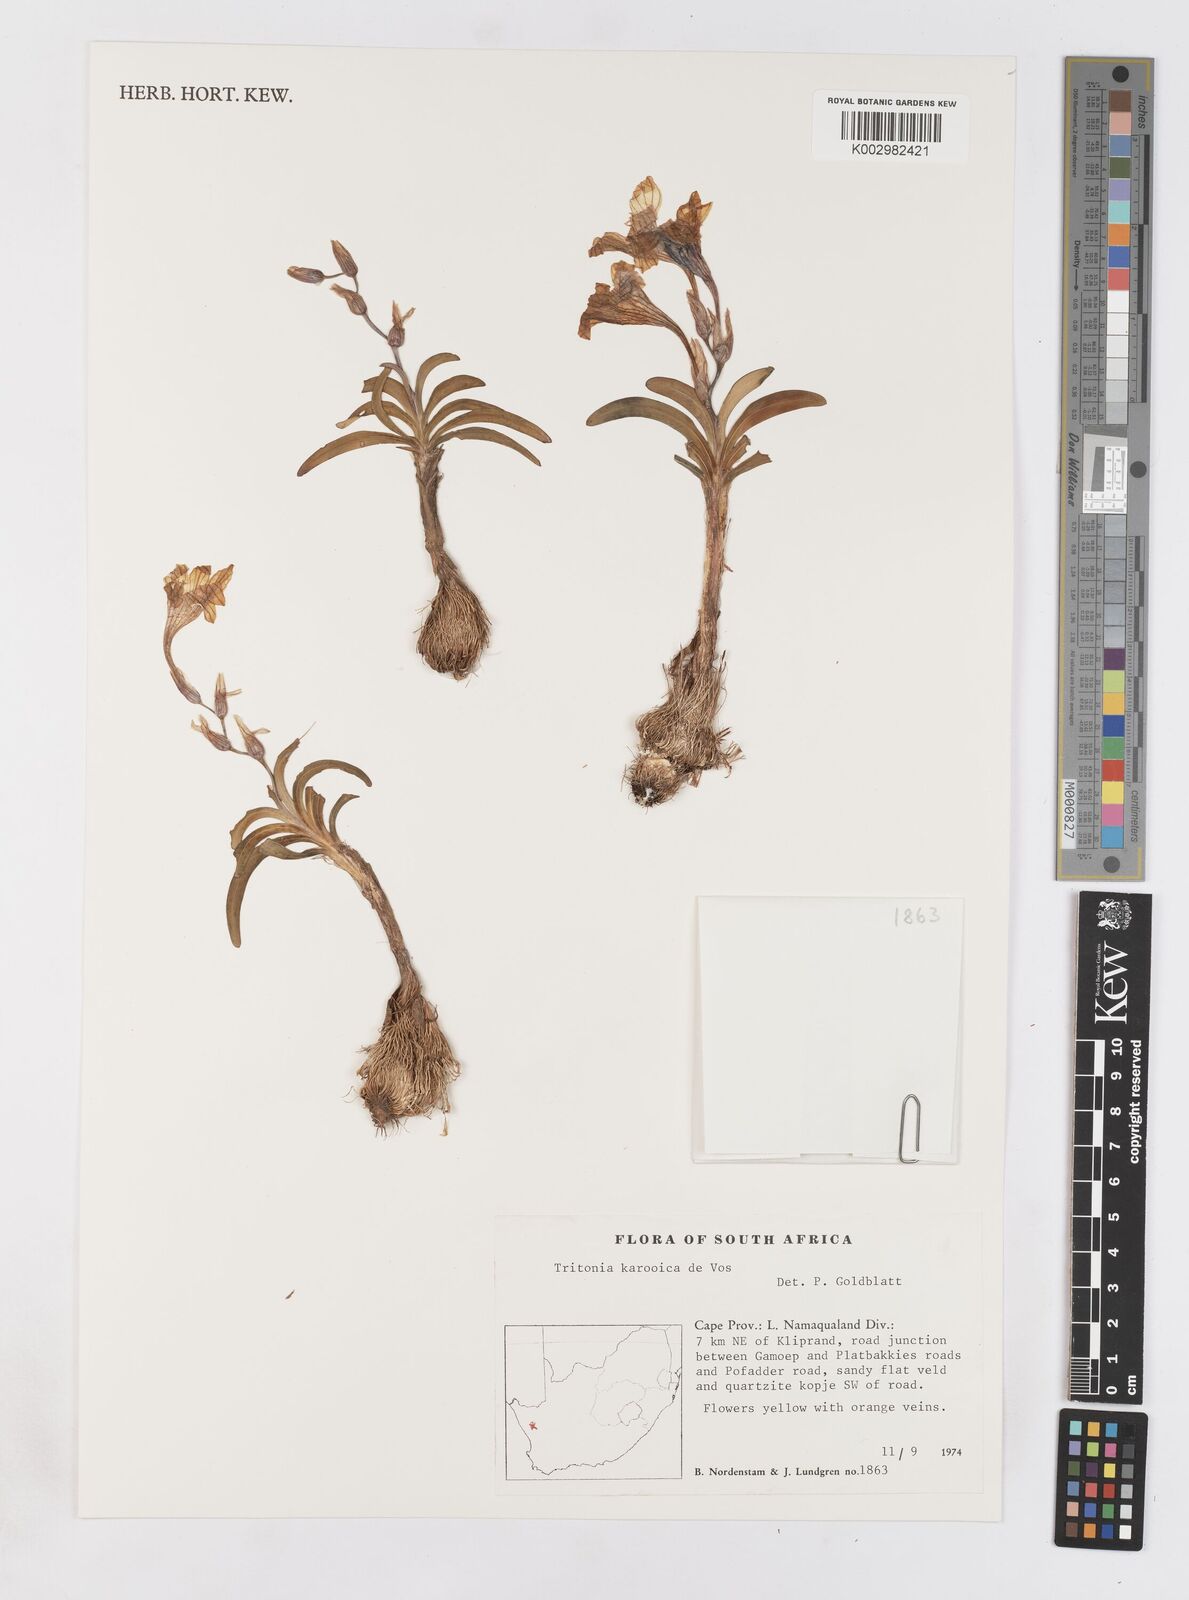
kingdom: Plantae
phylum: Tracheophyta
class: Liliopsida
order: Asparagales
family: Iridaceae
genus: Tritonia
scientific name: Tritonia karooica
